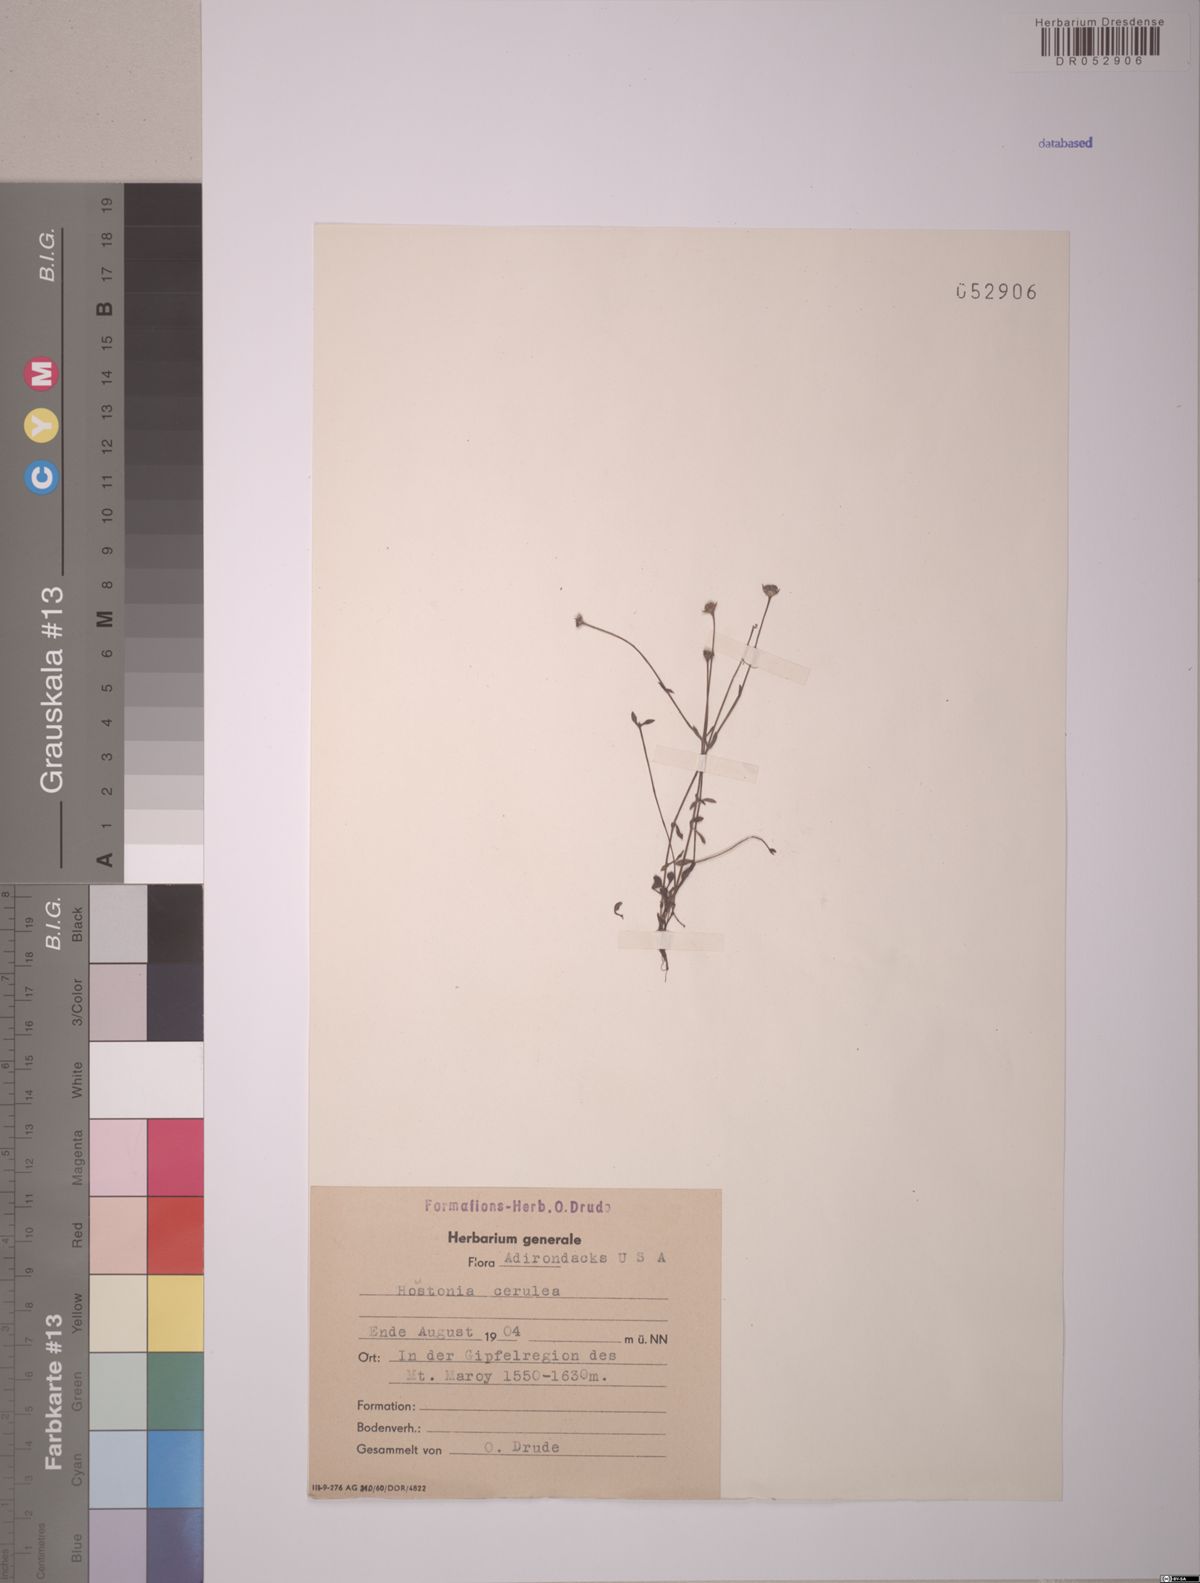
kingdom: Plantae
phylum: Tracheophyta
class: Magnoliopsida
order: Gentianales
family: Rubiaceae
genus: Houstonia
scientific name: Houstonia caerulea
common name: Bluets
